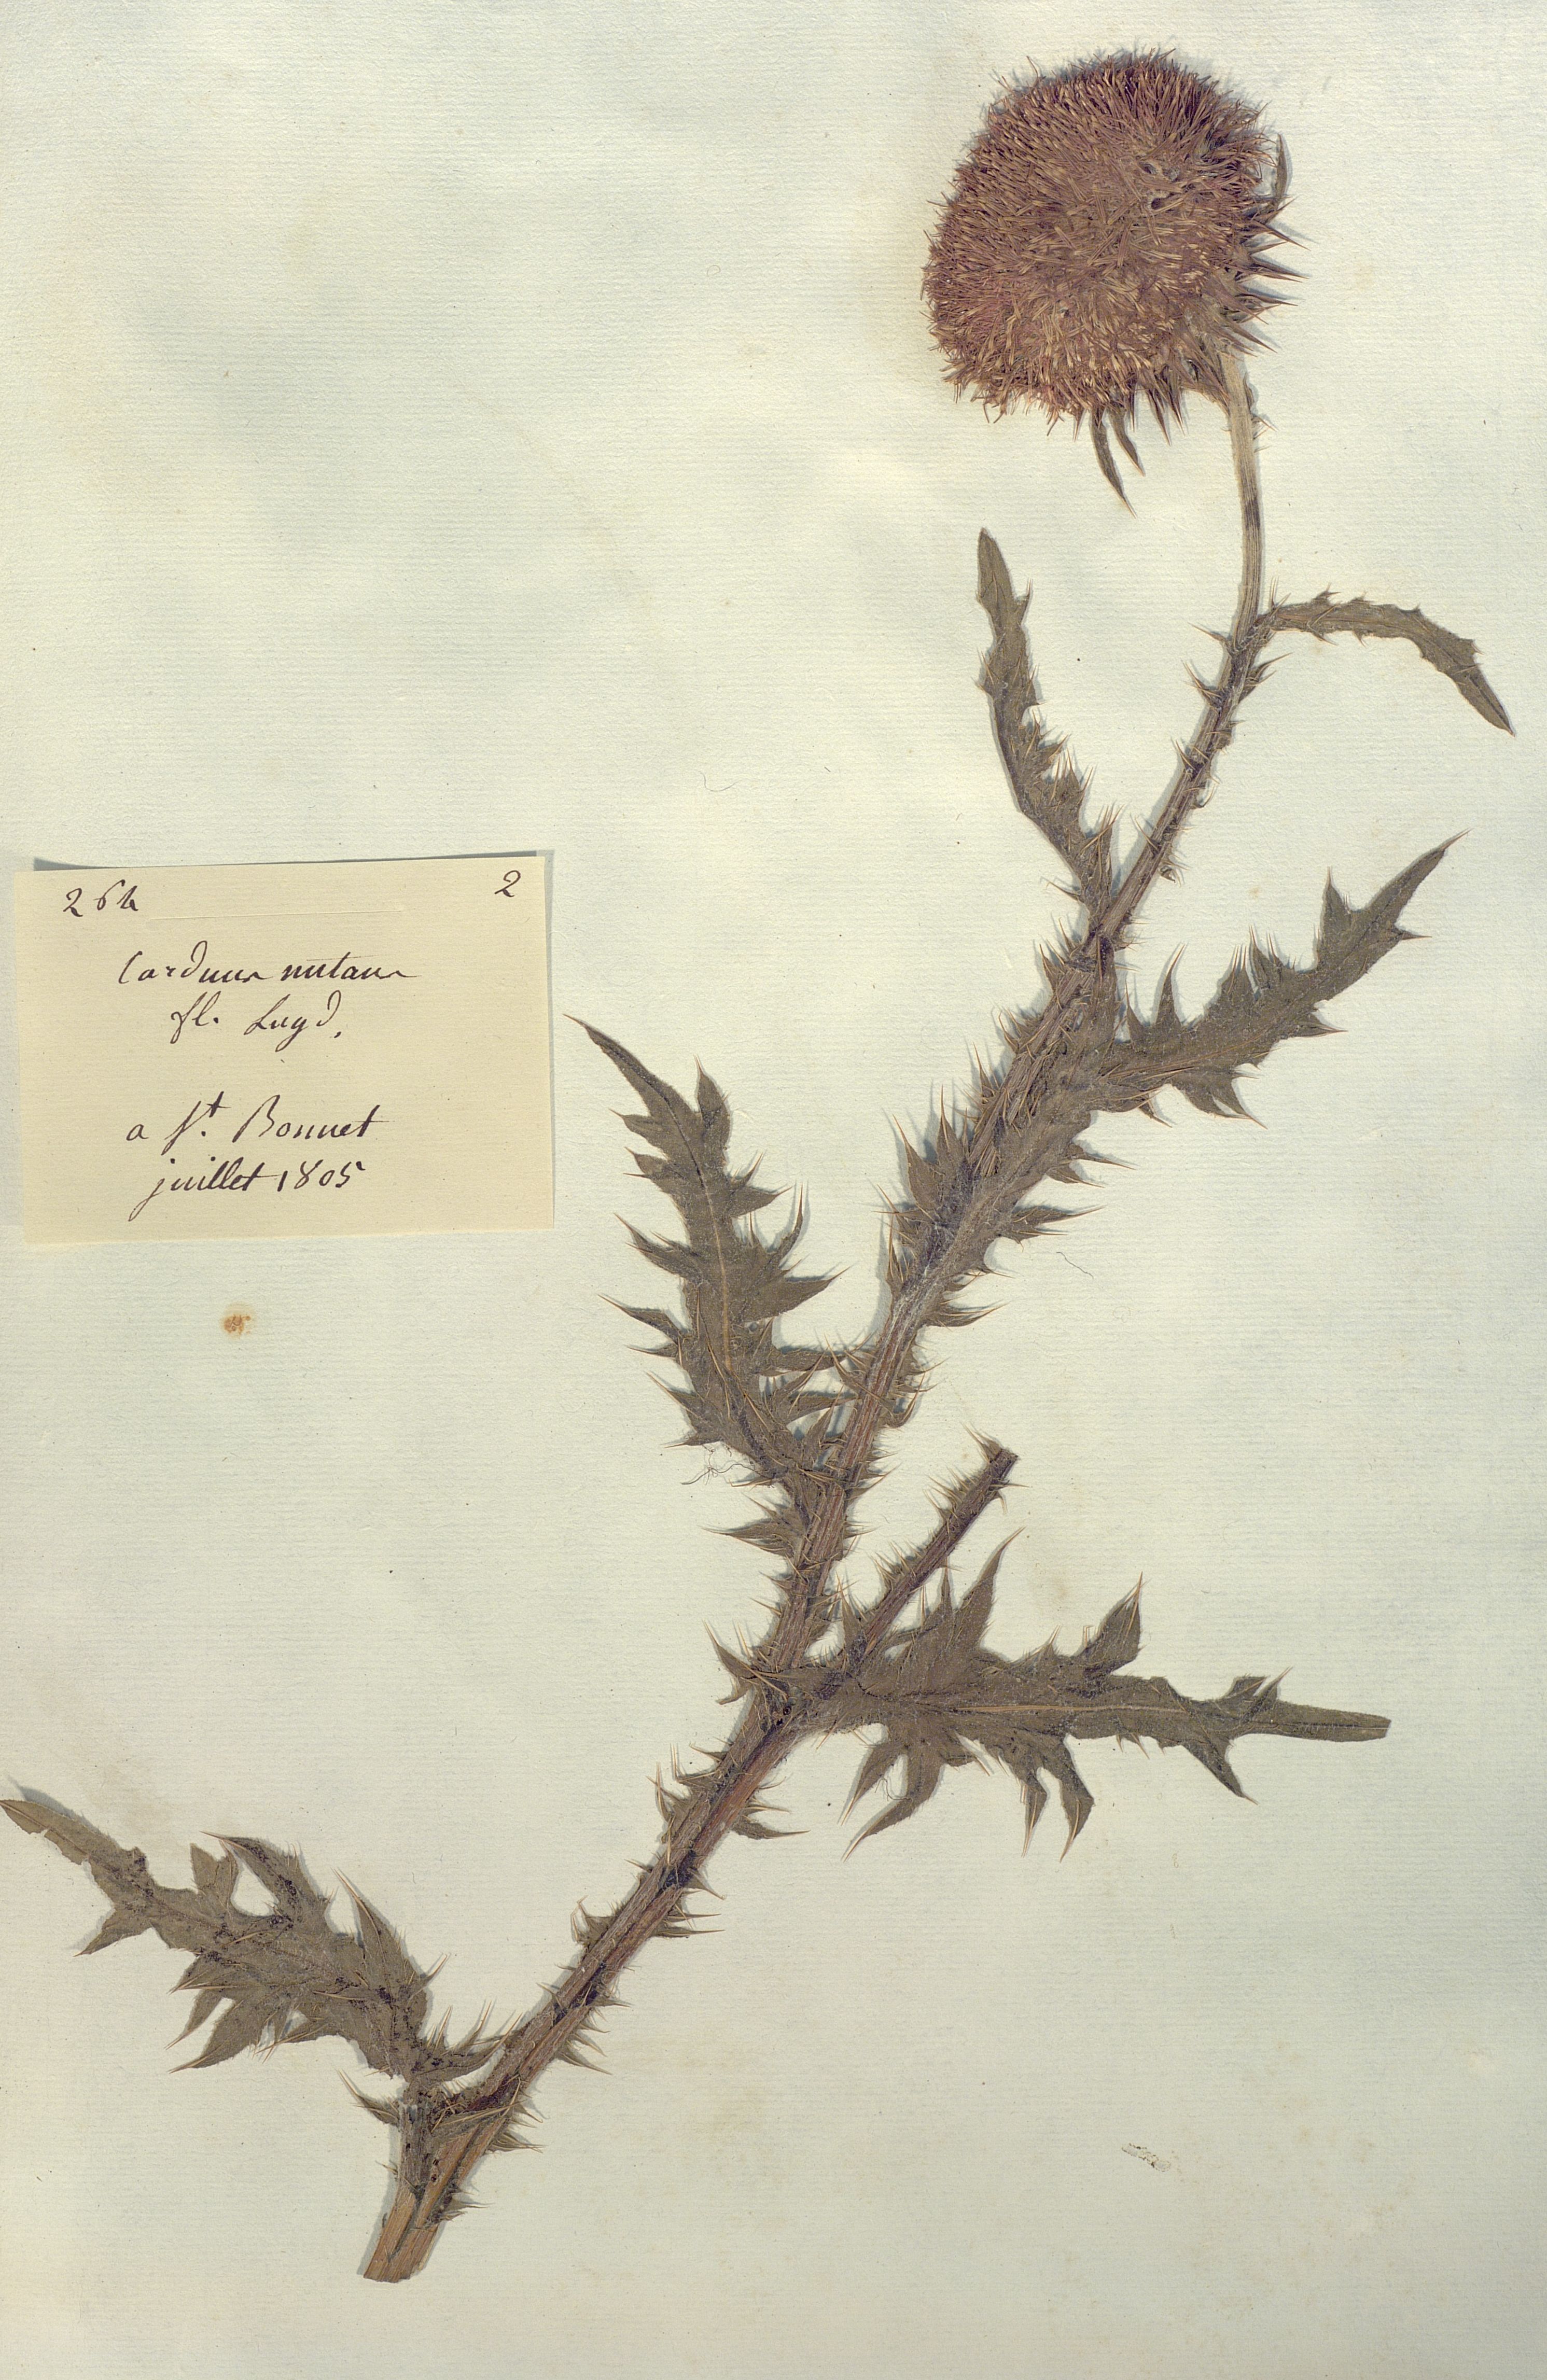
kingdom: Plantae
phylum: Tracheophyta
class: Magnoliopsida
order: Asterales
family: Asteraceae
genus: Carduus
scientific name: Carduus nutans
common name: Musk thistle
